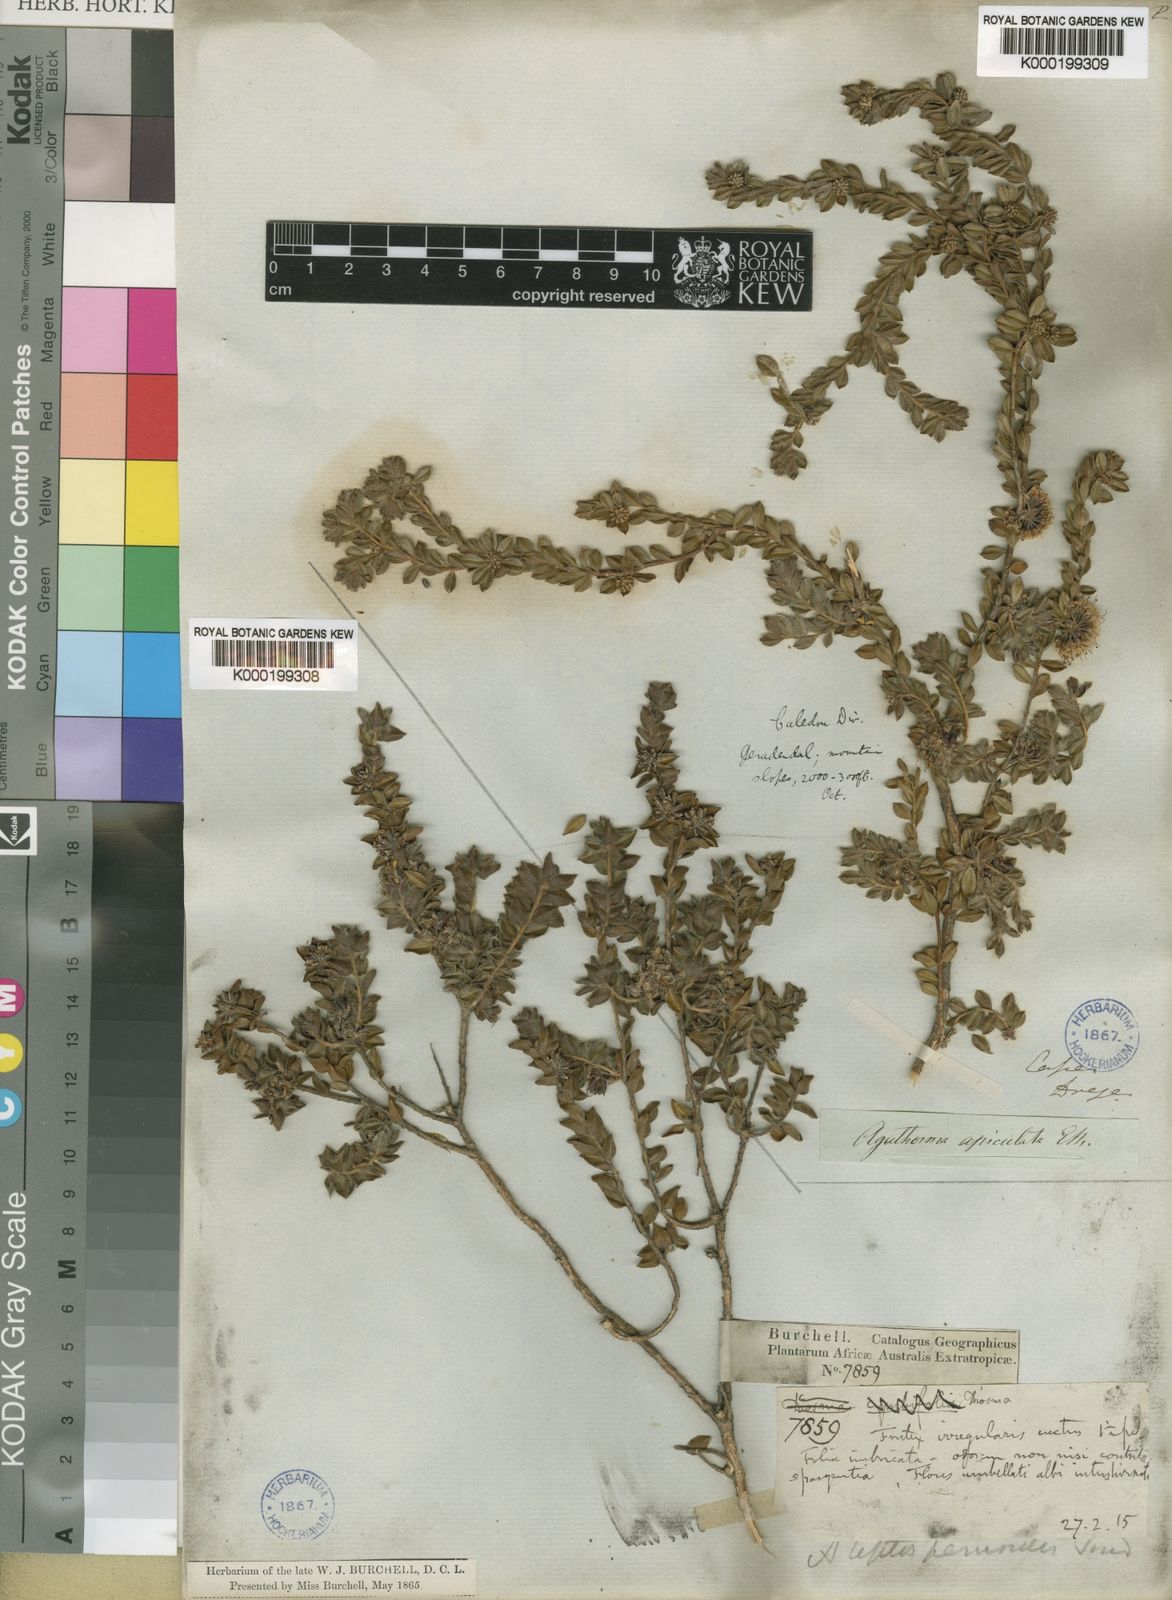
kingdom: Plantae
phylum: Tracheophyta
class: Magnoliopsida
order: Sapindales
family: Rutaceae
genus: Agathosma
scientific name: Agathosma leptospermoides
